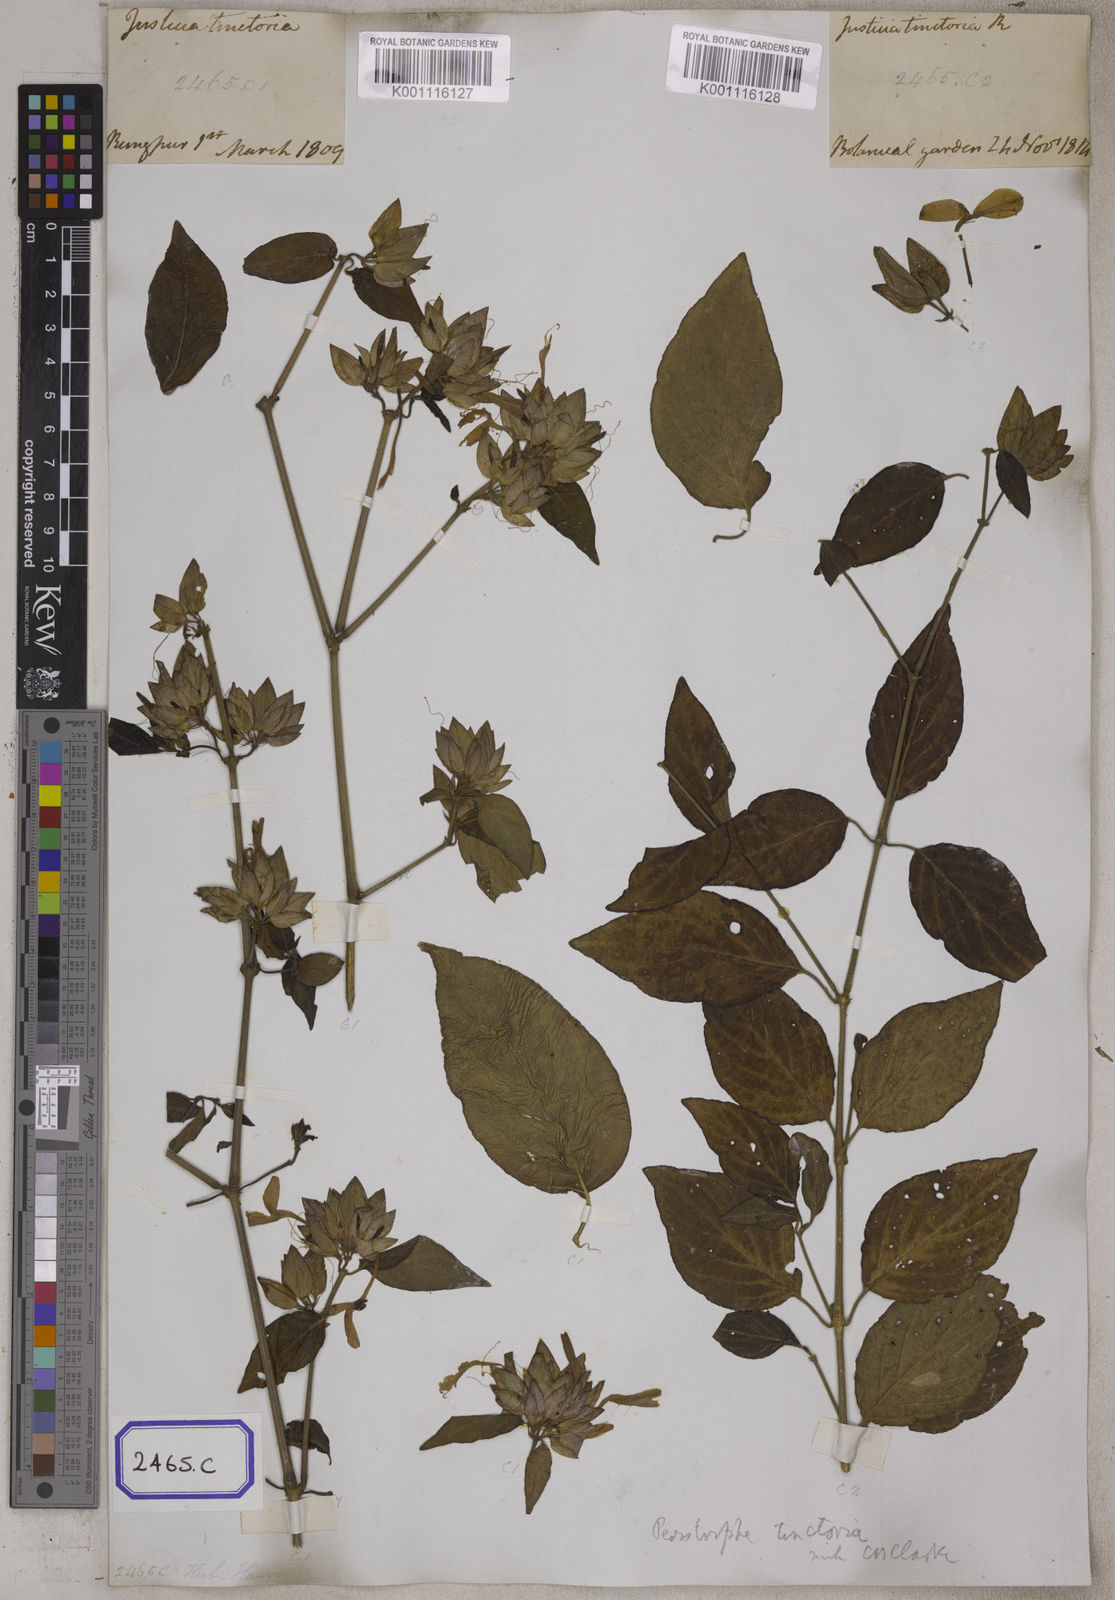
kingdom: Plantae
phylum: Tracheophyta
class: Magnoliopsida
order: Lamiales
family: Acanthaceae
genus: Dicliptera
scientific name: Dicliptera tinctoria
